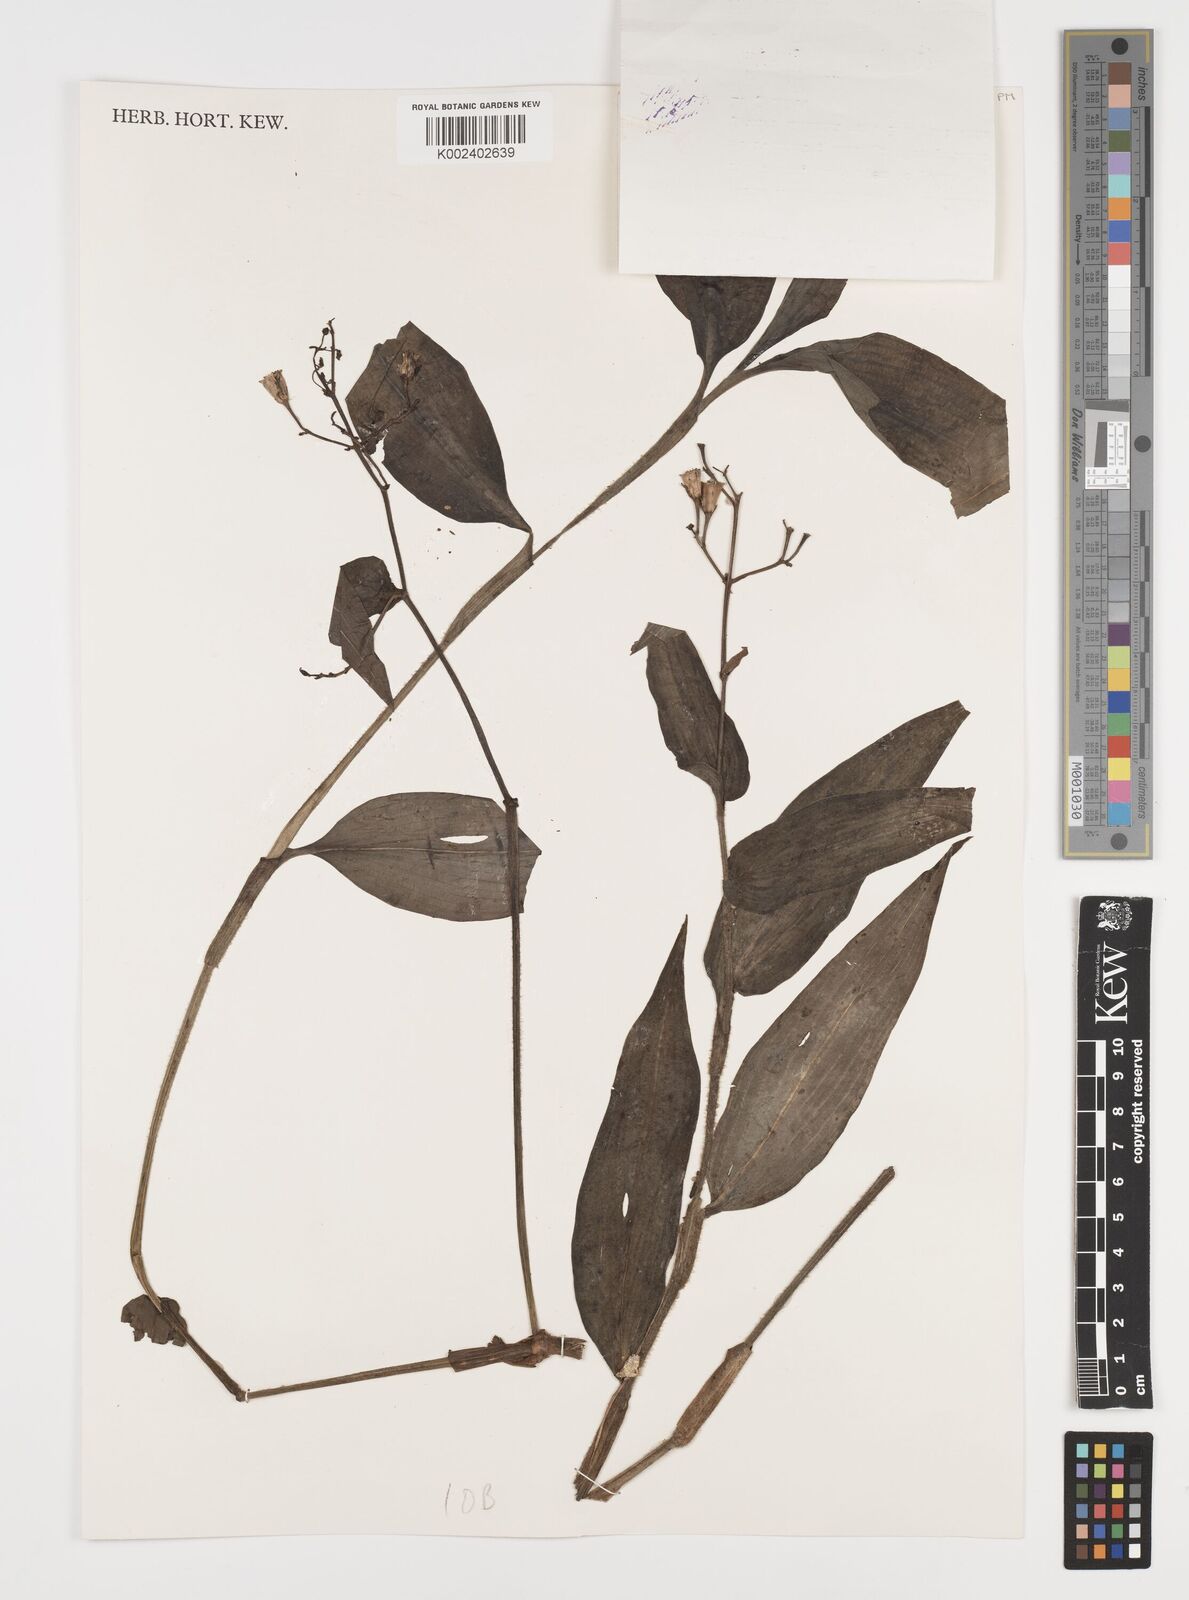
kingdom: Plantae
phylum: Tracheophyta
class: Liliopsida
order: Commelinales
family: Commelinaceae
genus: Aneilema
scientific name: Aneilema aequinoctiale
